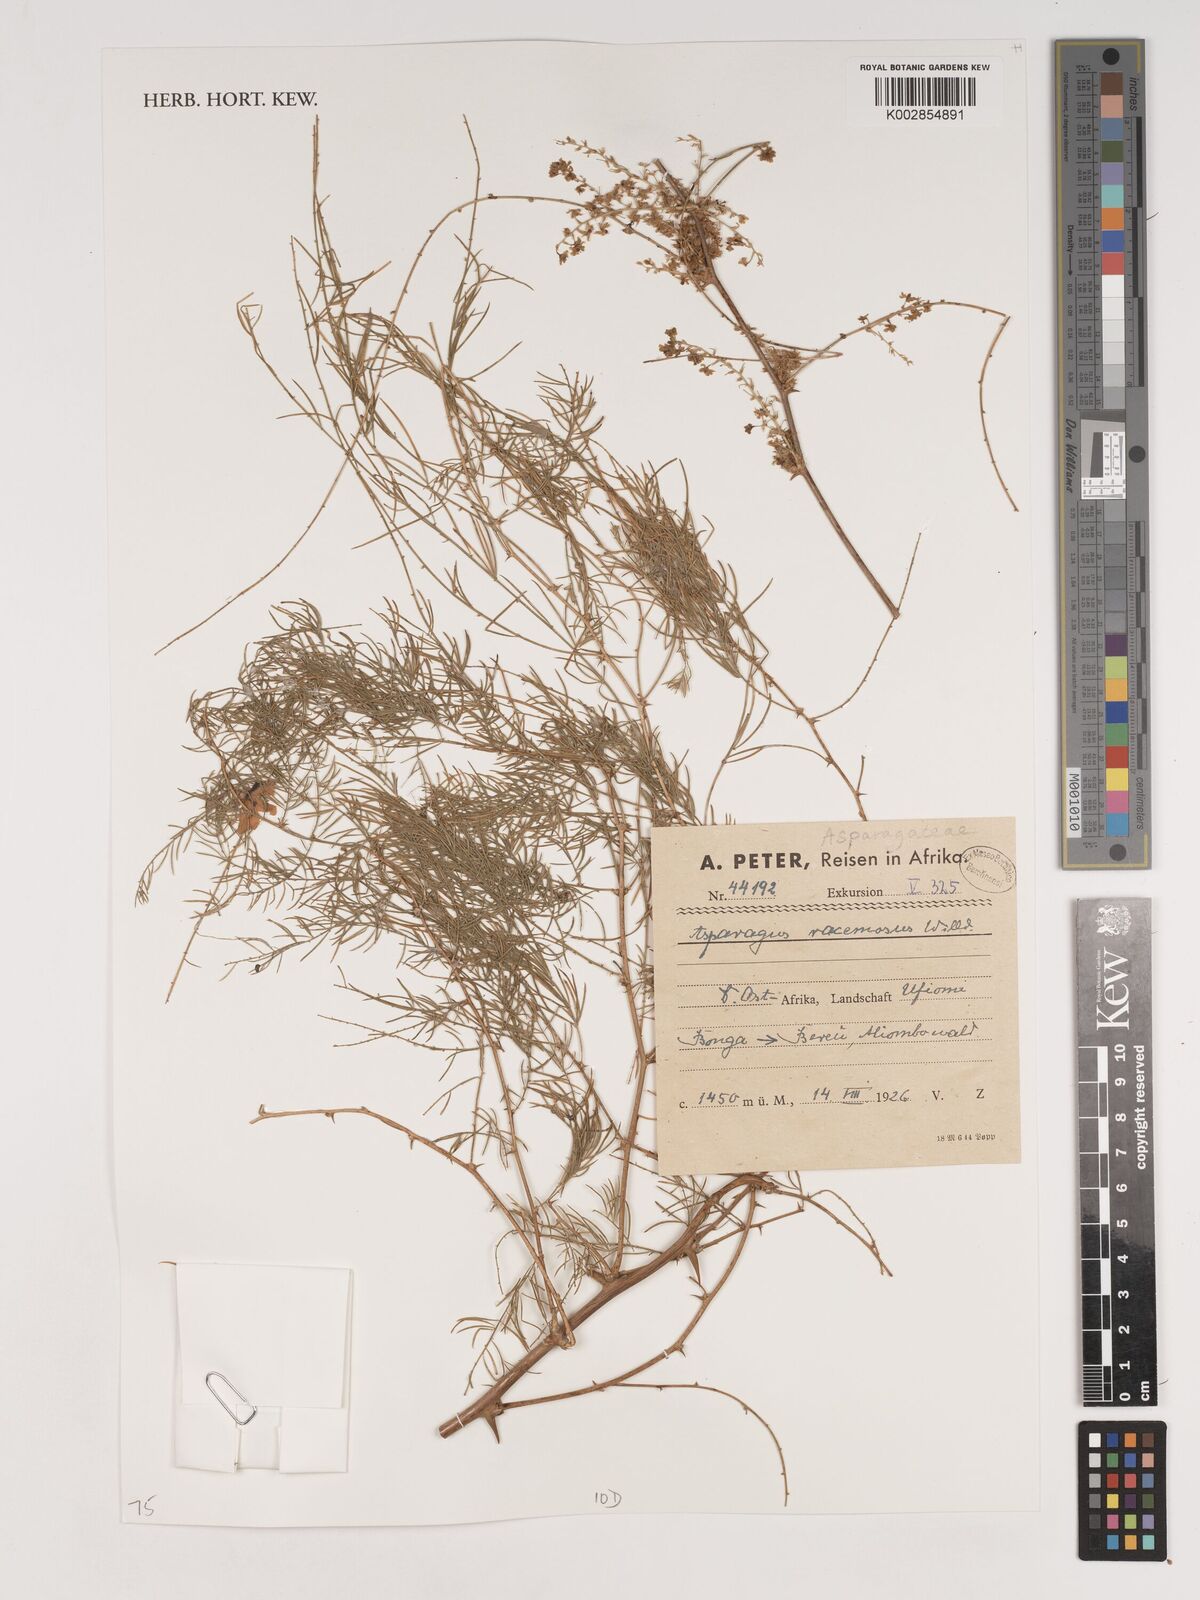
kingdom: Plantae
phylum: Tracheophyta
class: Liliopsida
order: Asparagales
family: Asparagaceae
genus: Asparagus
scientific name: Asparagus racemosus
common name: Asparagus-fern
